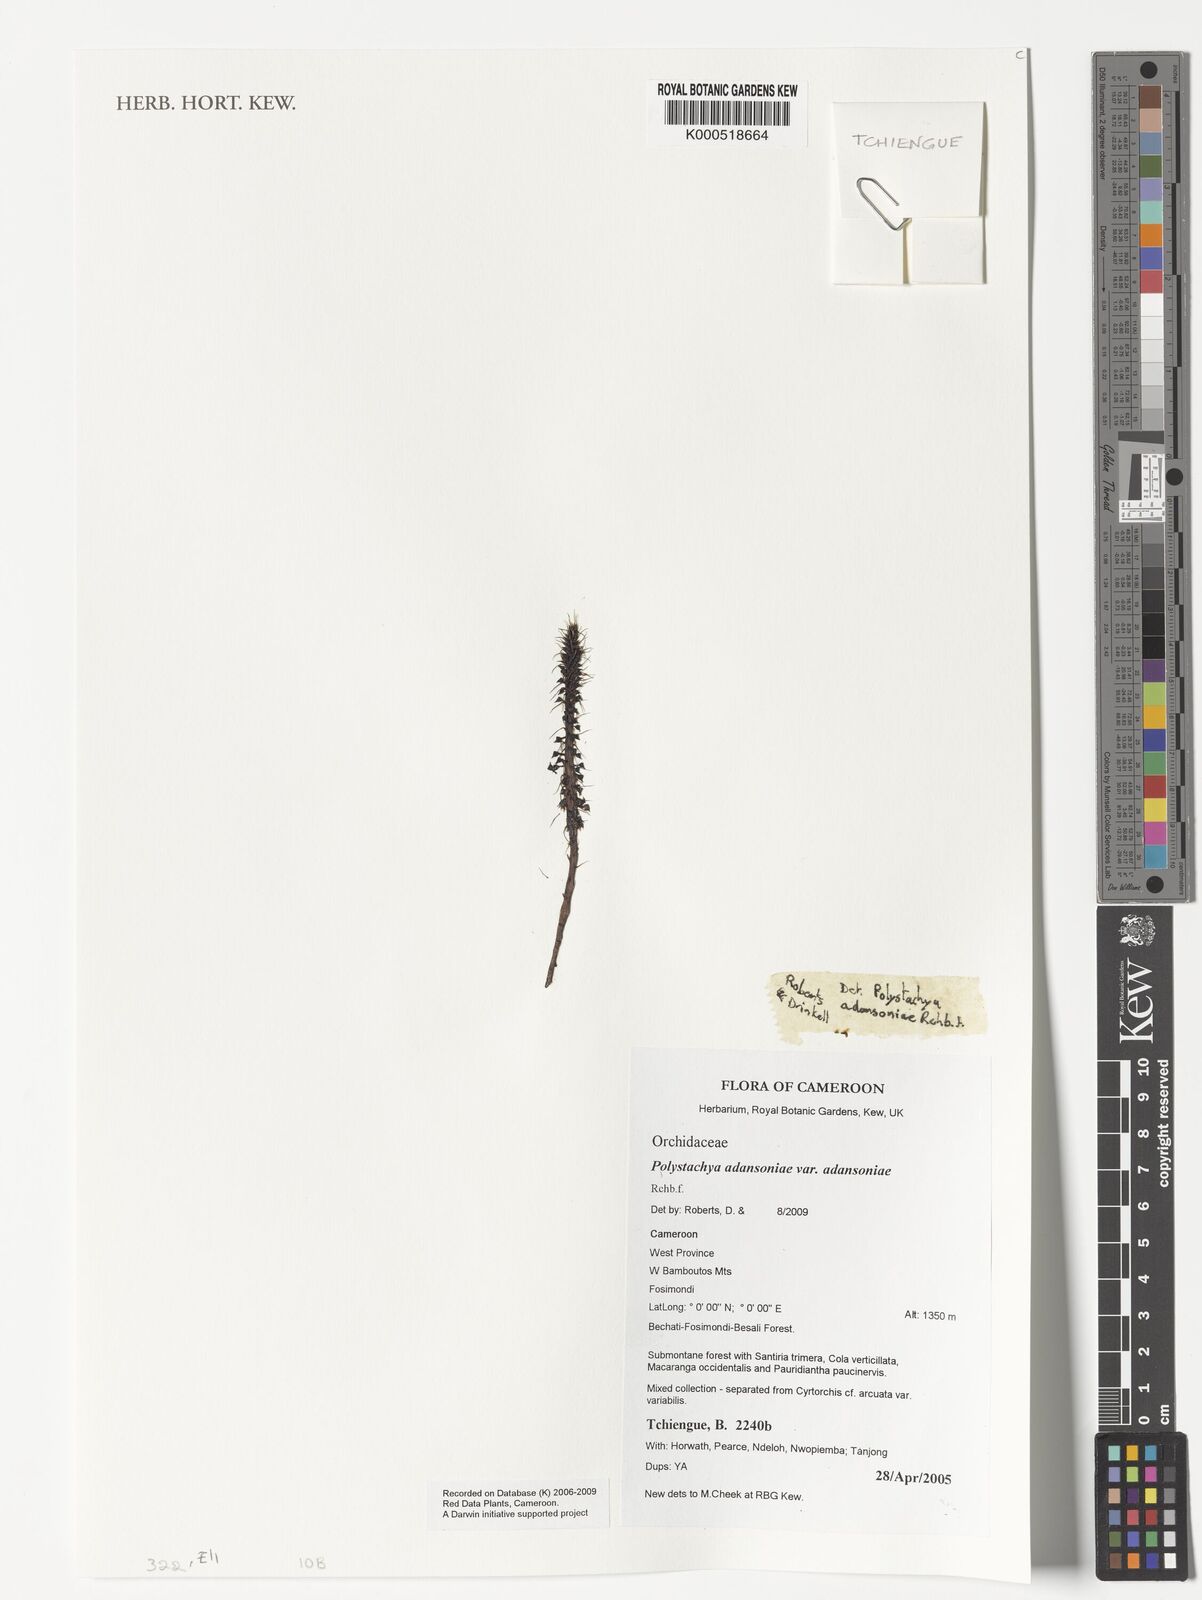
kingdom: Plantae
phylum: Tracheophyta
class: Liliopsida
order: Asparagales
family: Orchidaceae
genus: Polystachya
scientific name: Polystachya adansoniae
